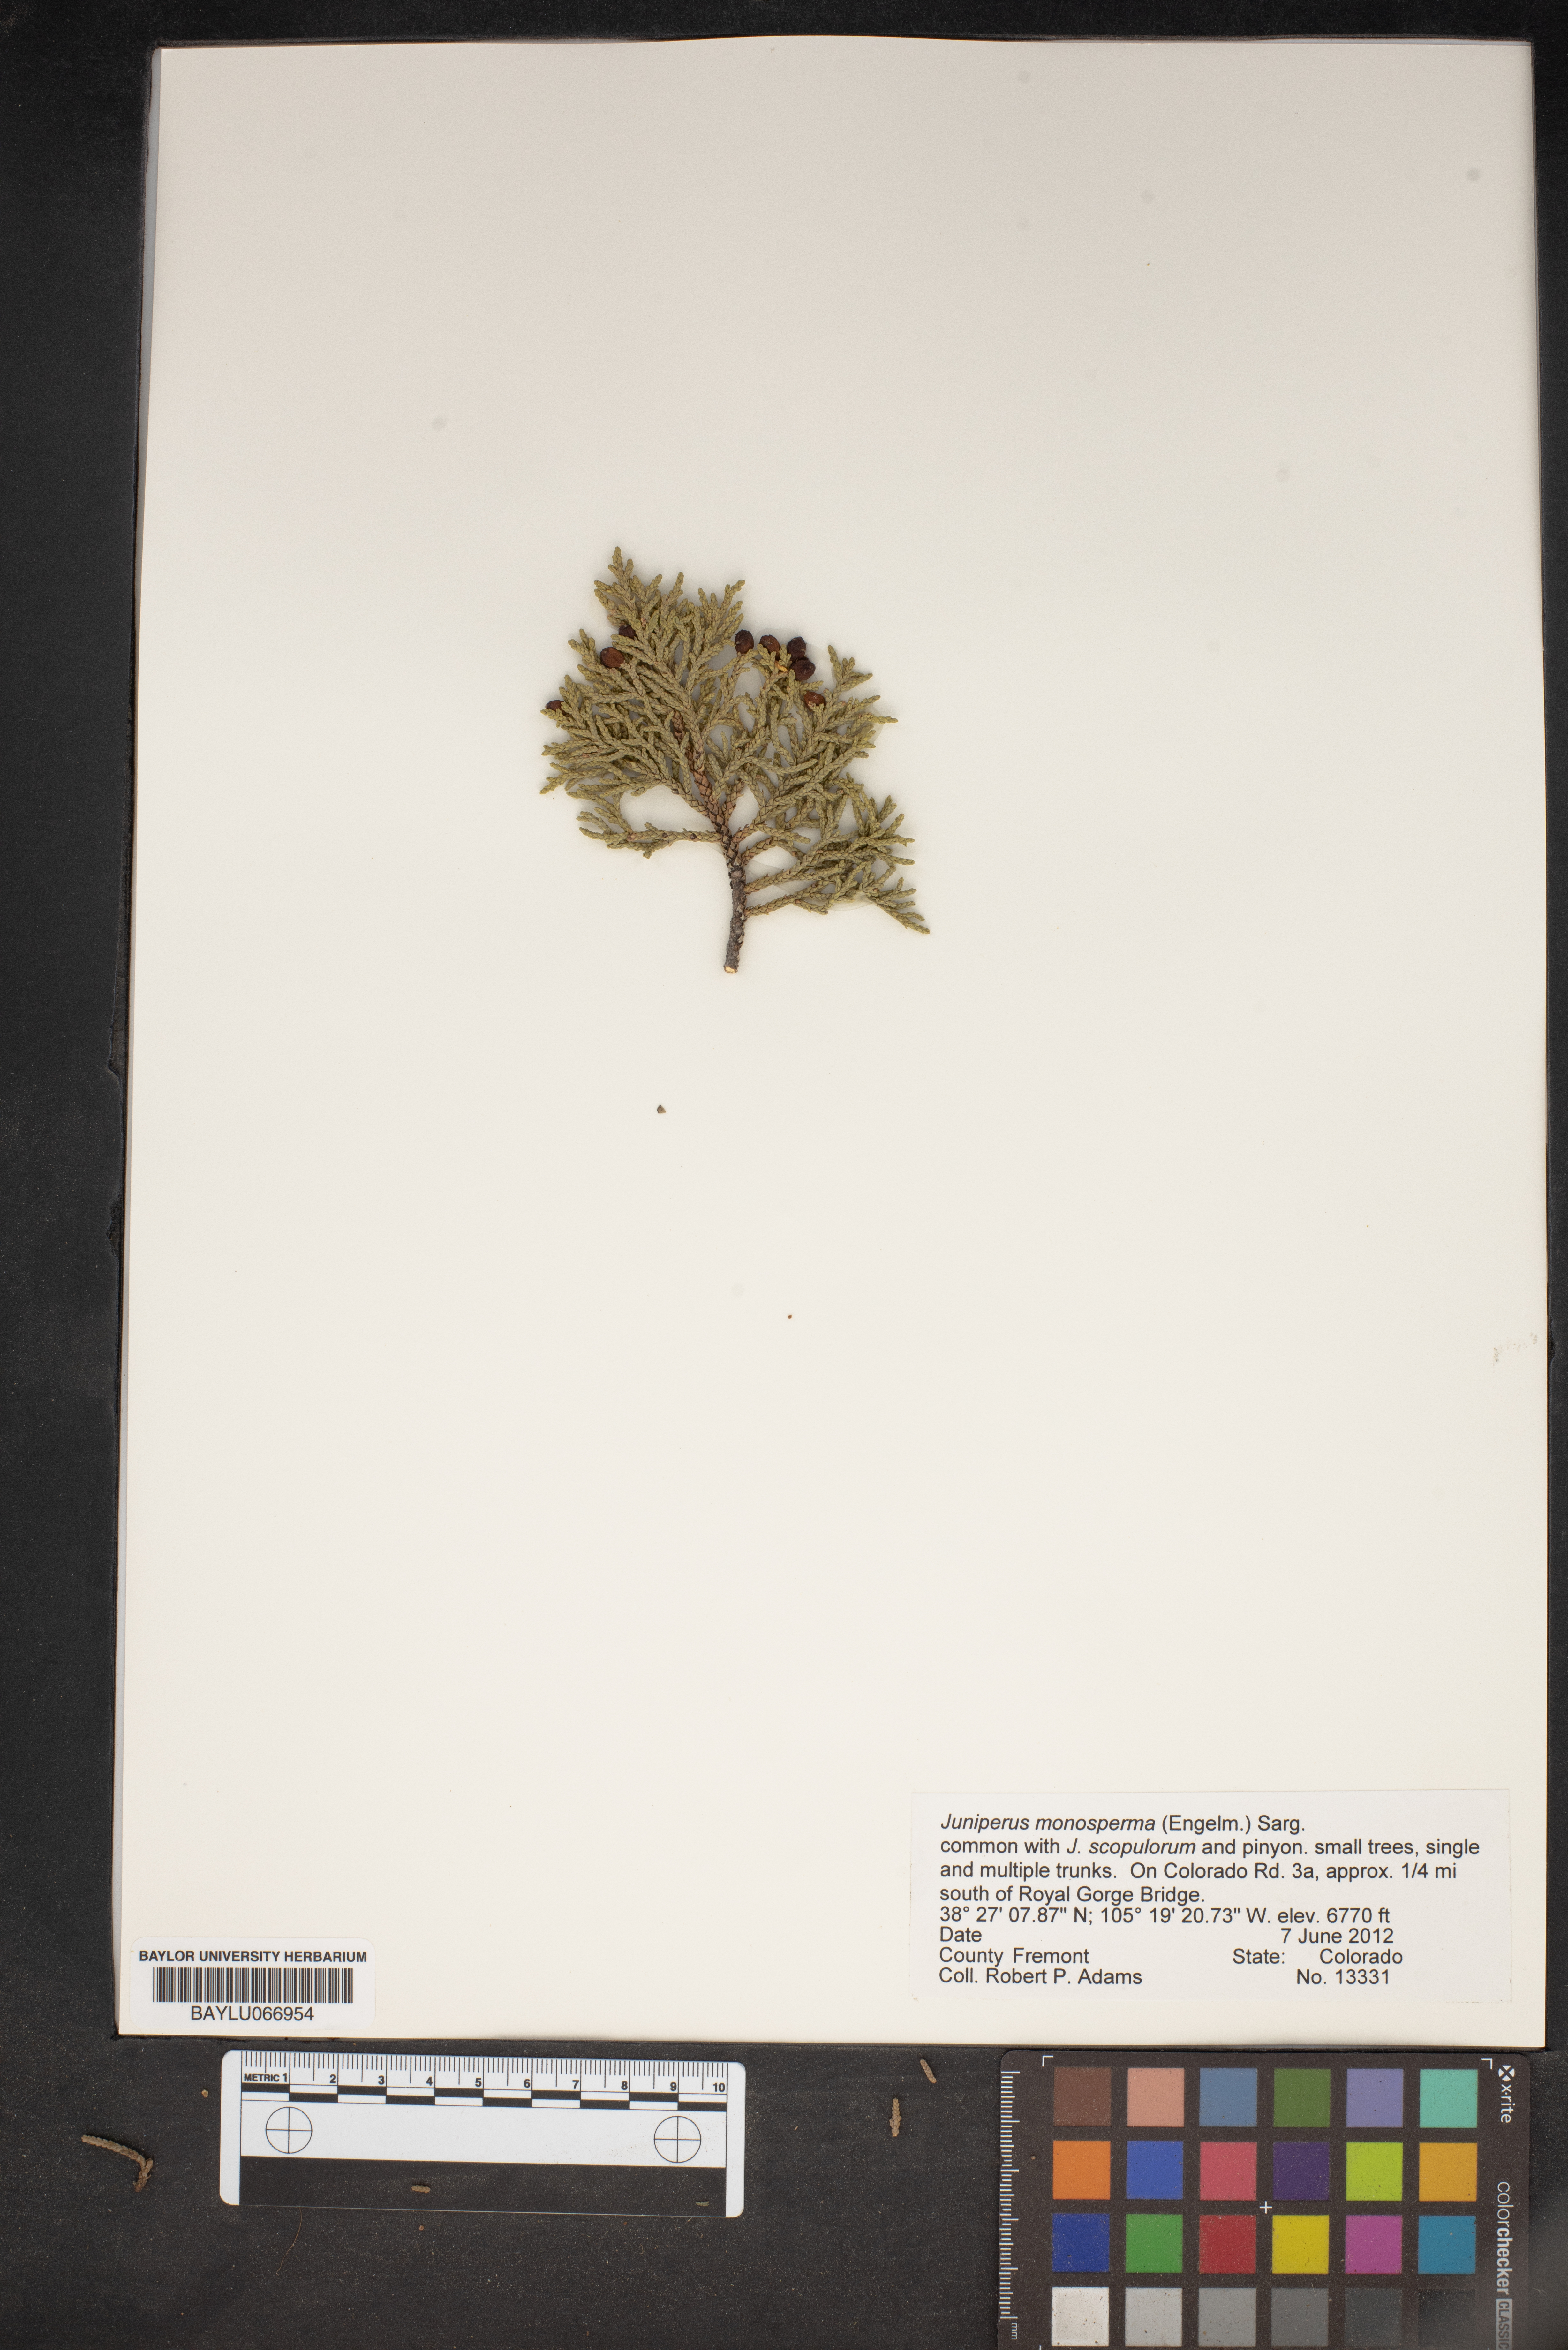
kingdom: Plantae
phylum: Tracheophyta
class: Pinopsida
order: Pinales
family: Cupressaceae
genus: Juniperus
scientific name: Juniperus monosperma
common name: One-seed juniper
